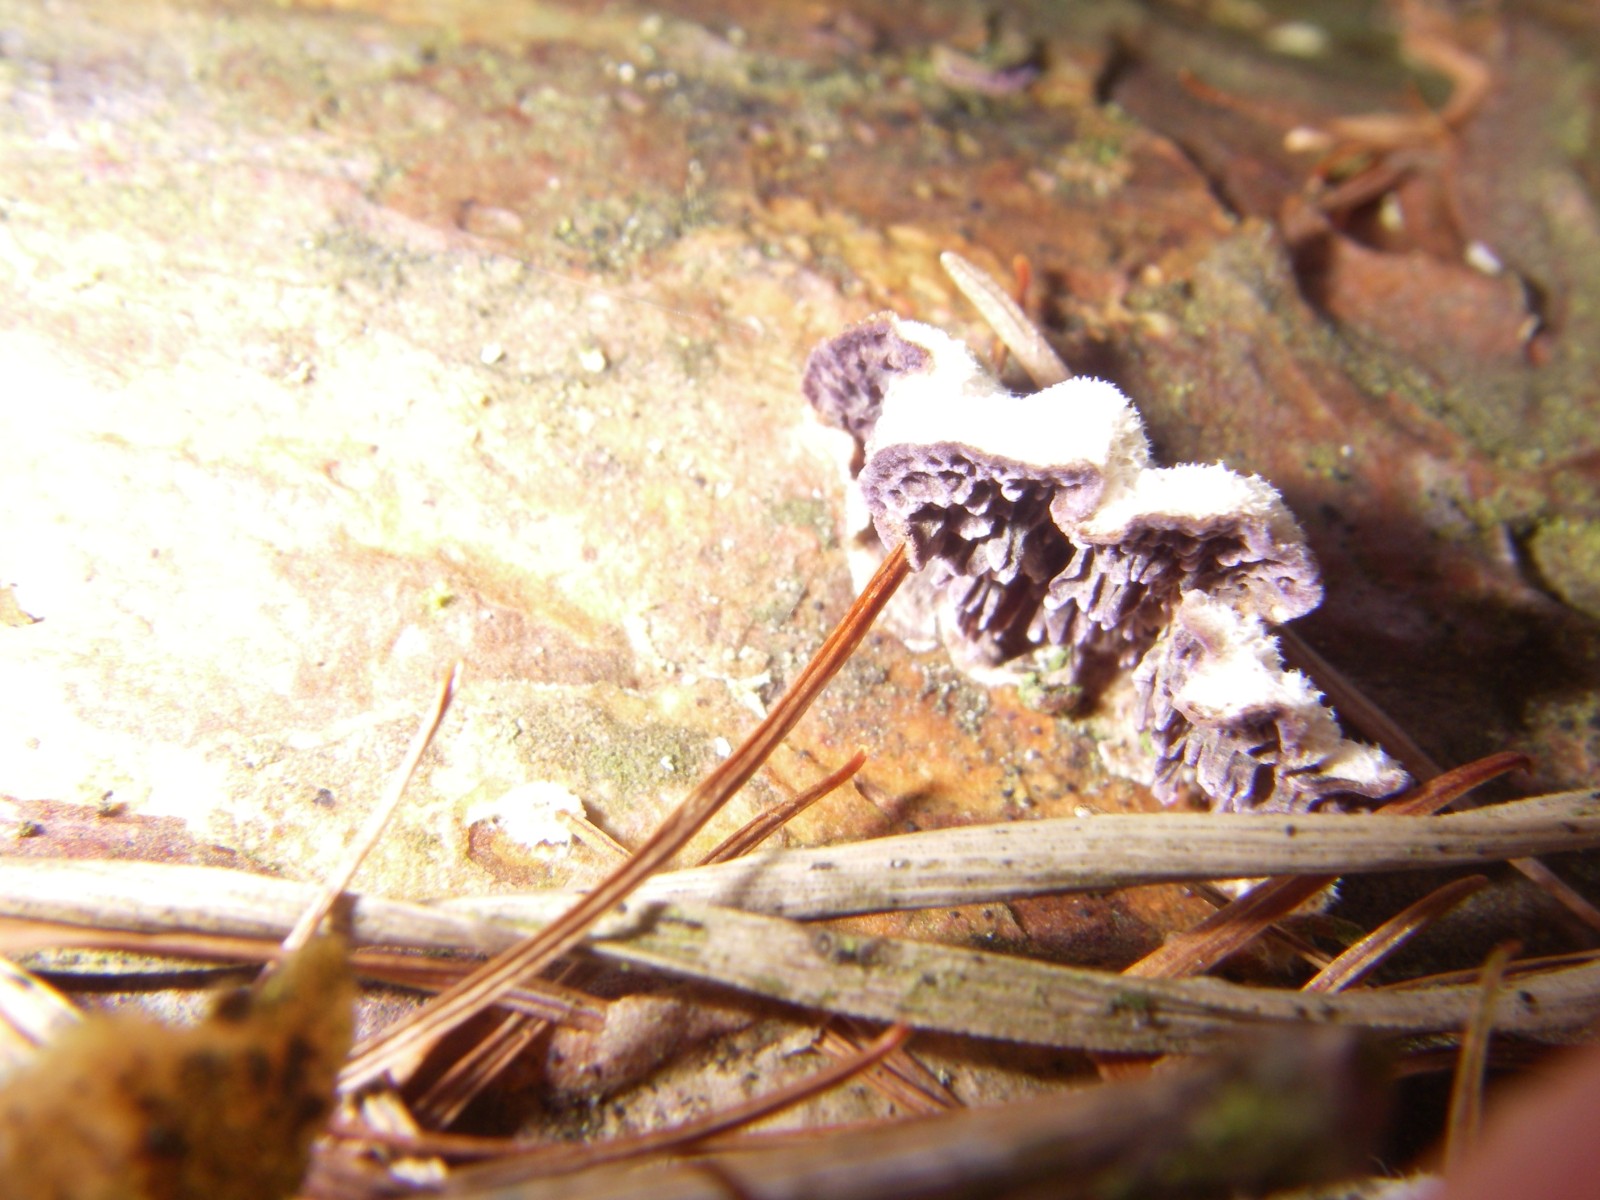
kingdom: Fungi
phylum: Basidiomycota
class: Agaricomycetes
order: Hymenochaetales
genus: Trichaptum
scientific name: Trichaptum fuscoviolaceum
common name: tandet violporesvamp
